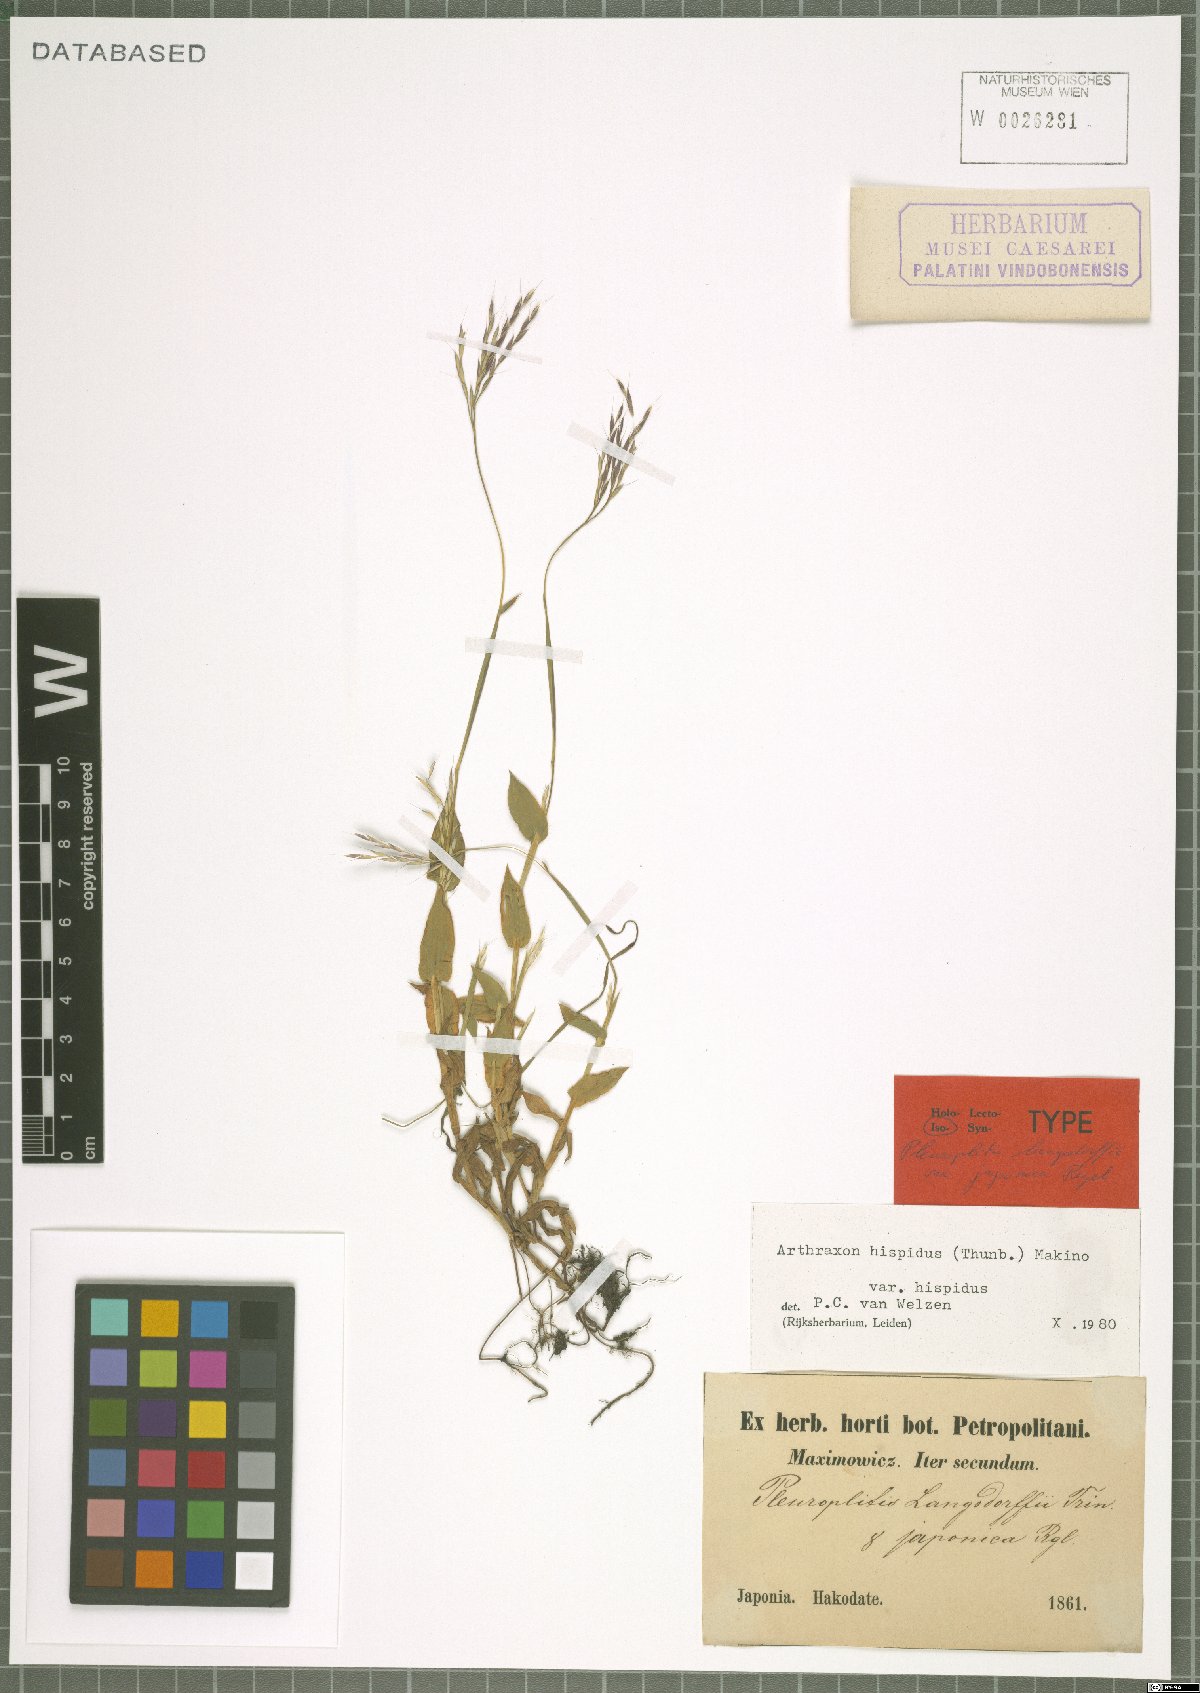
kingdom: Plantae
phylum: Tracheophyta
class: Liliopsida
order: Poales
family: Poaceae
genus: Arthraxon
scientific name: Arthraxon hispidus
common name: Small carpgrass
